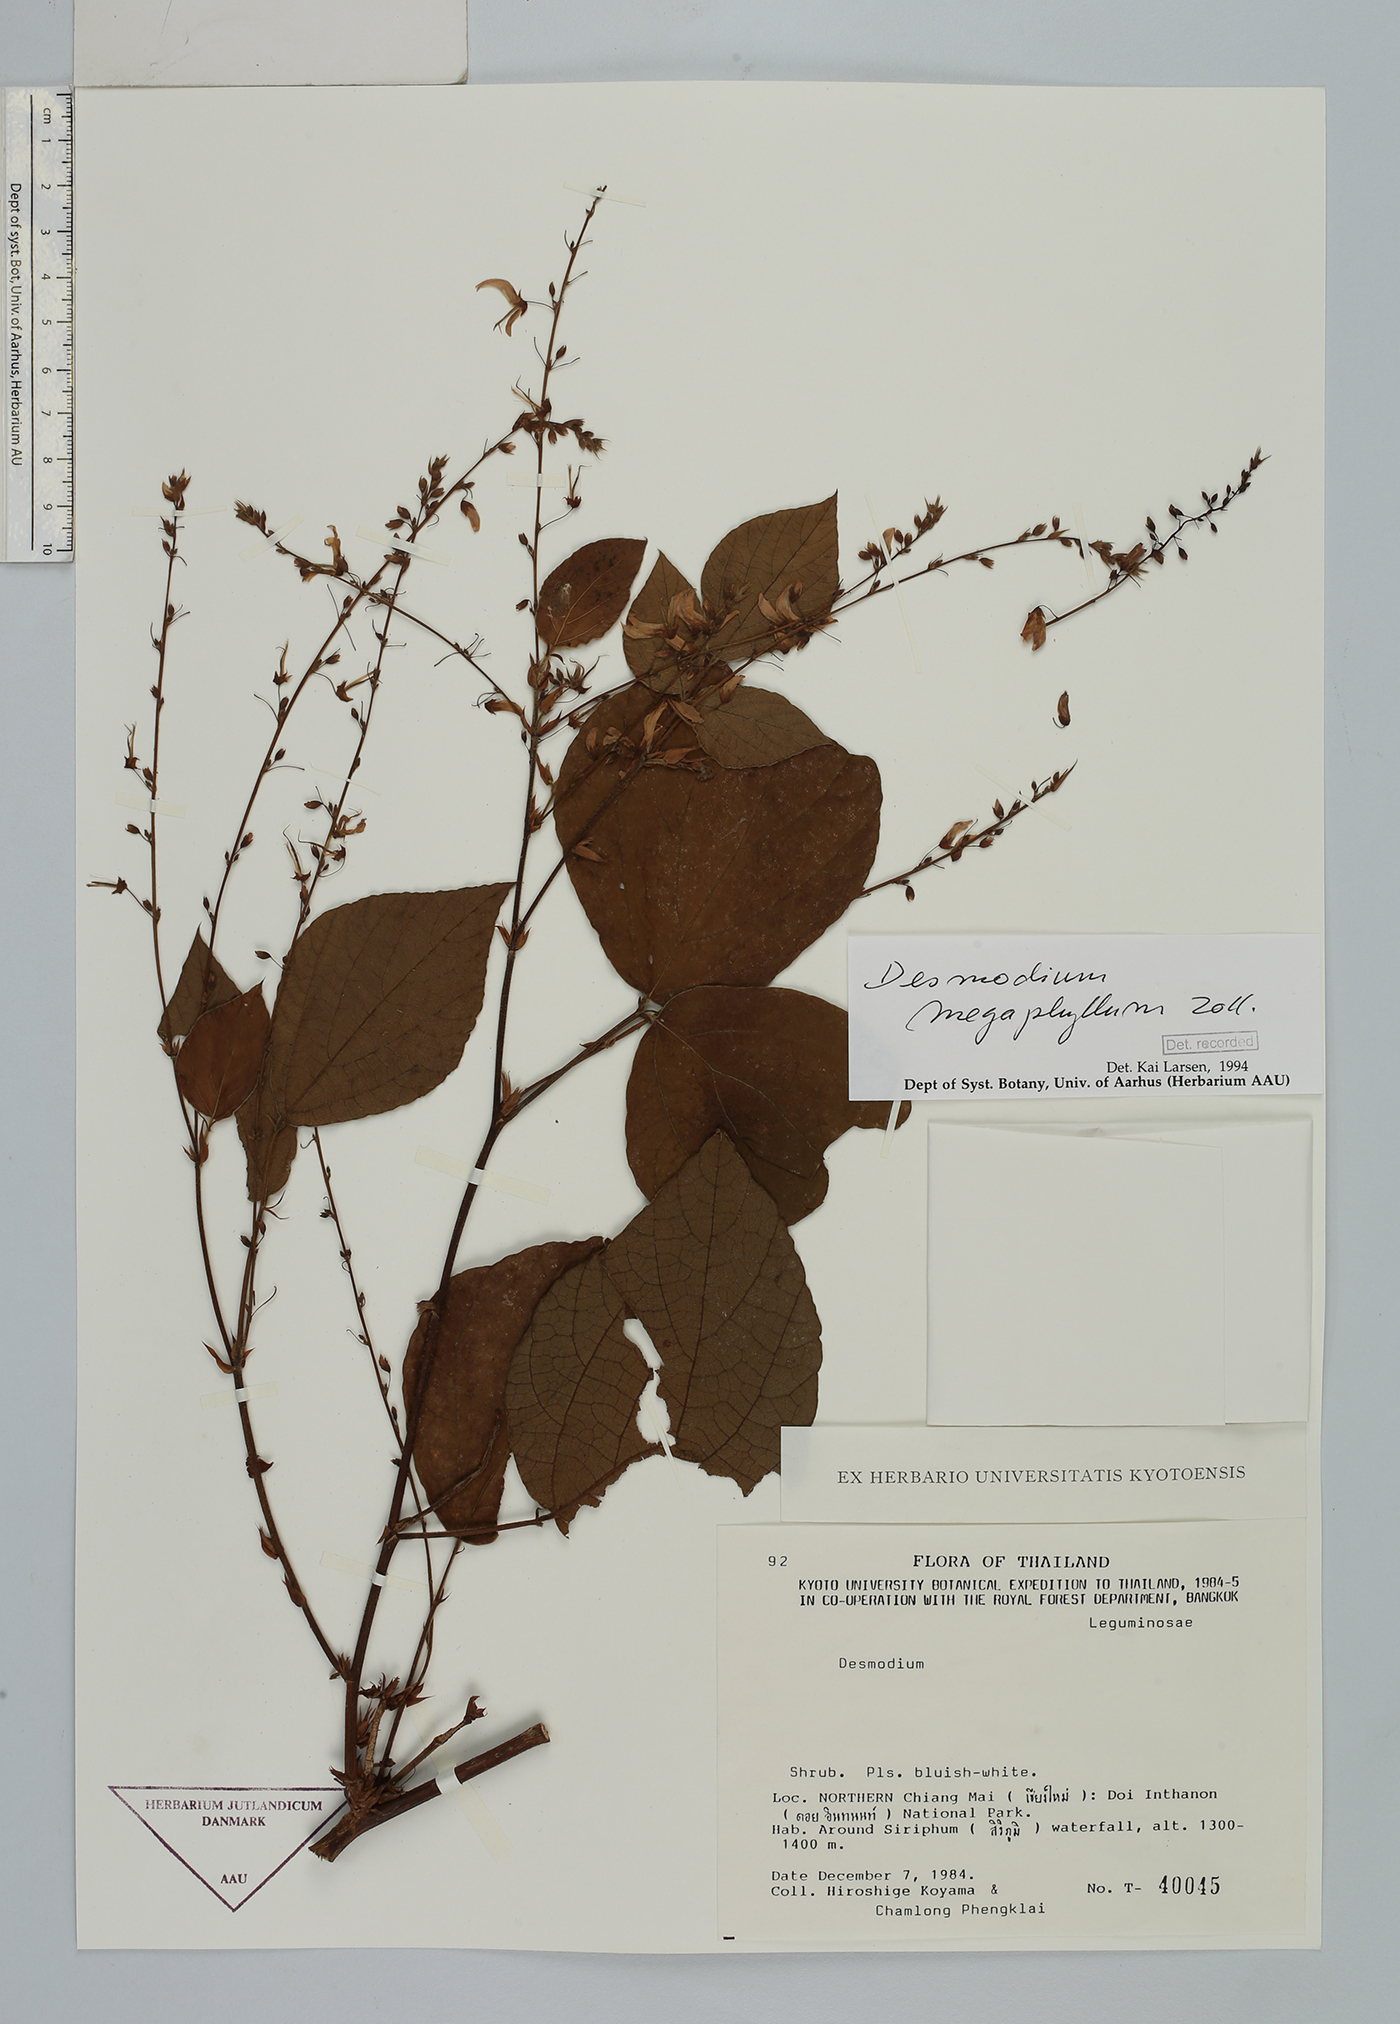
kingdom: Plantae
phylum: Tracheophyta
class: Magnoliopsida
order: Fabales
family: Fabaceae
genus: Puhuaea
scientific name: Puhuaea megaphylla
